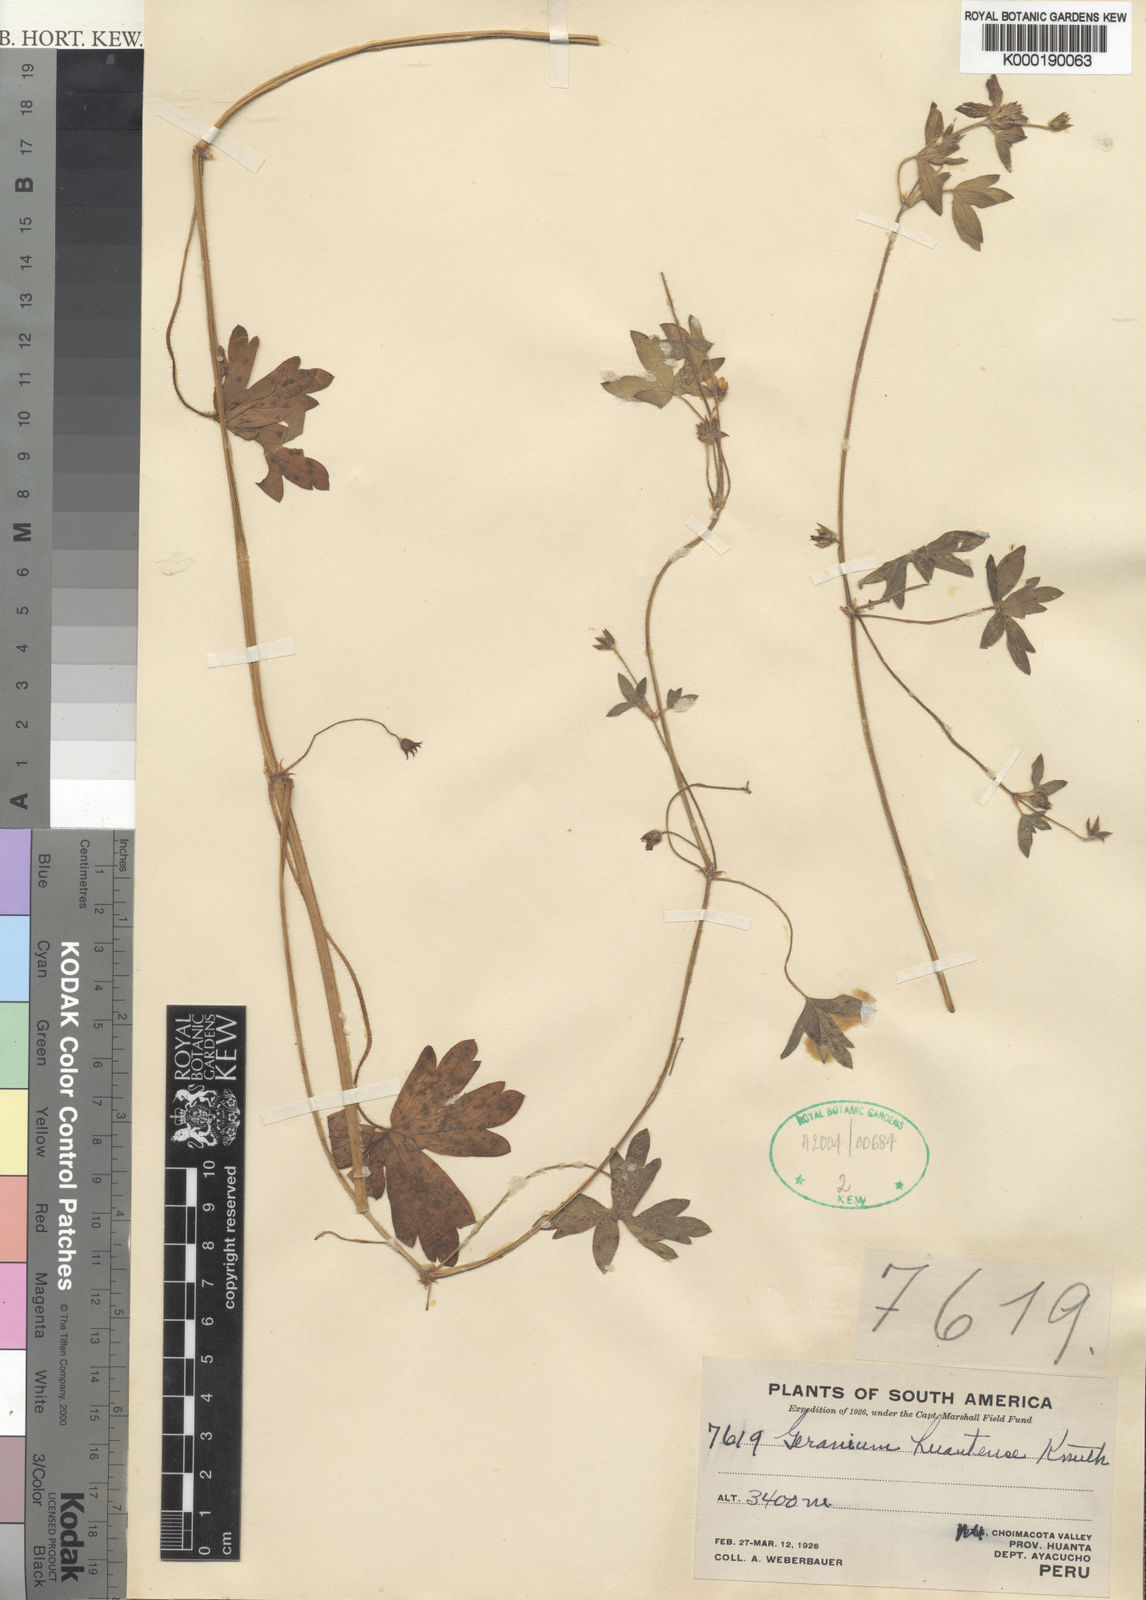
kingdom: Plantae
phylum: Tracheophyta
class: Magnoliopsida
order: Geraniales
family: Geraniaceae
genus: Geranium
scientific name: Geranium chilloense
